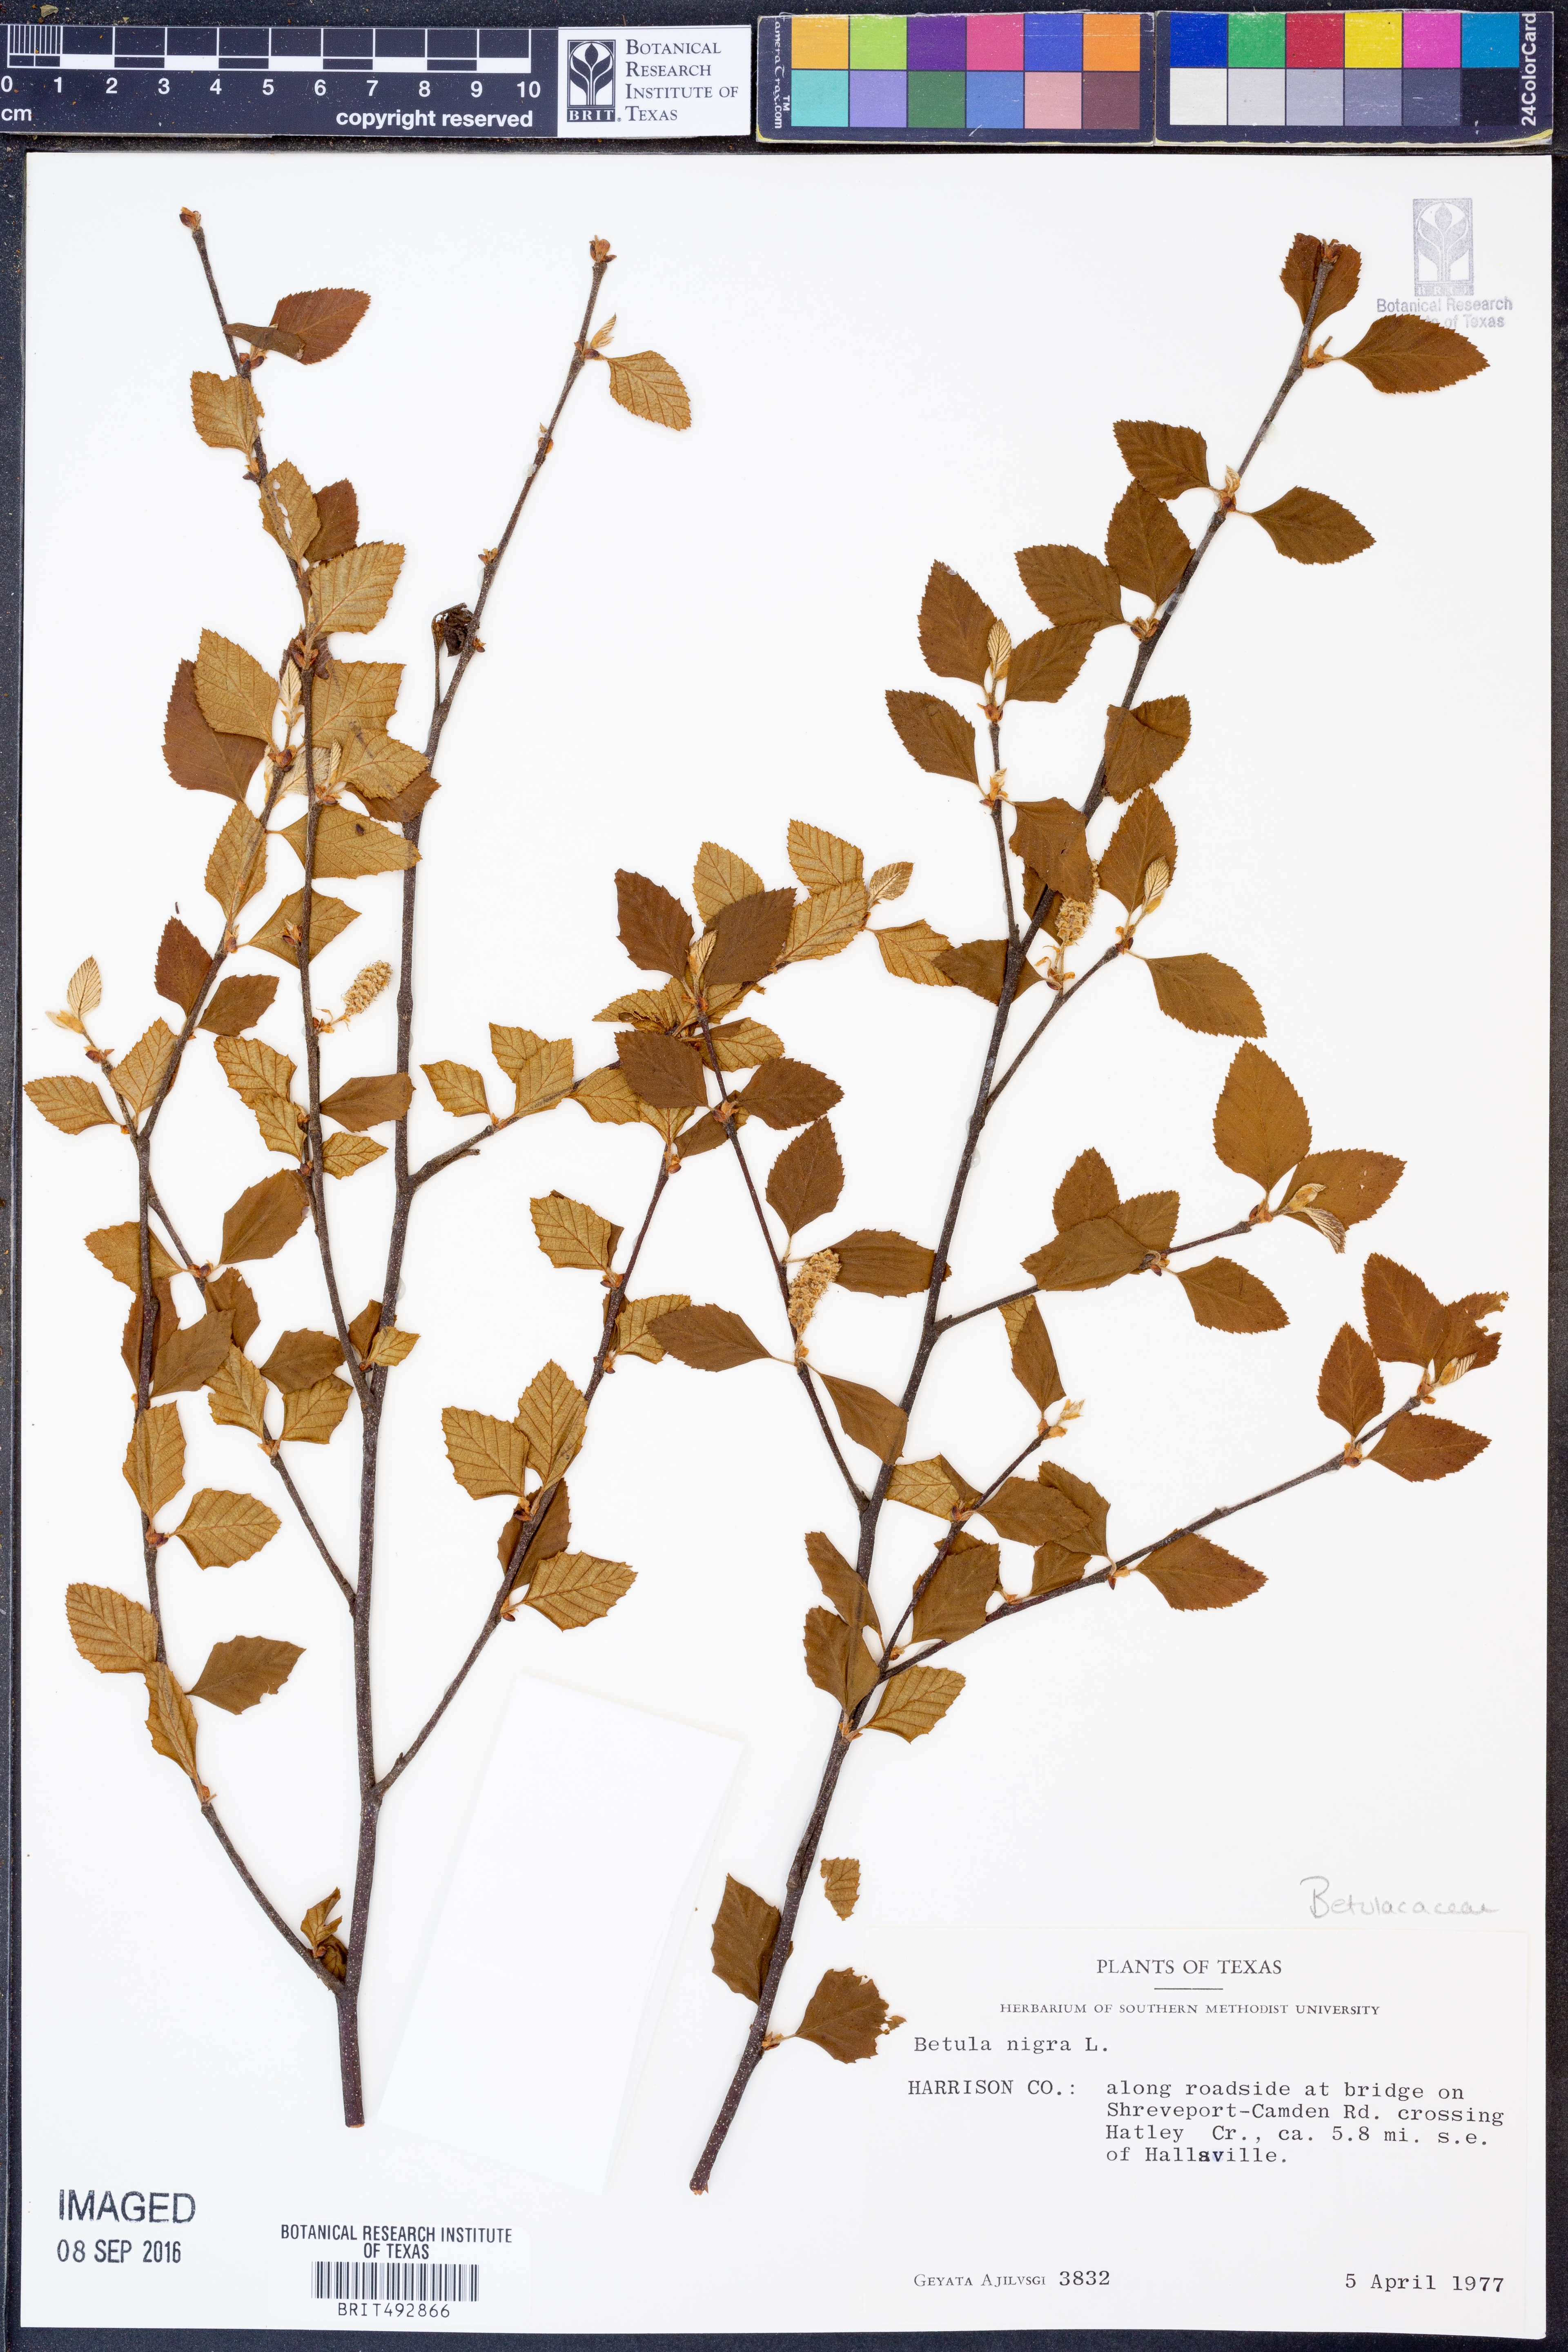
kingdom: Plantae
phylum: Tracheophyta
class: Magnoliopsida
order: Fagales
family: Betulaceae
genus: Betula
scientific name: Betula nigra
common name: Black birch
